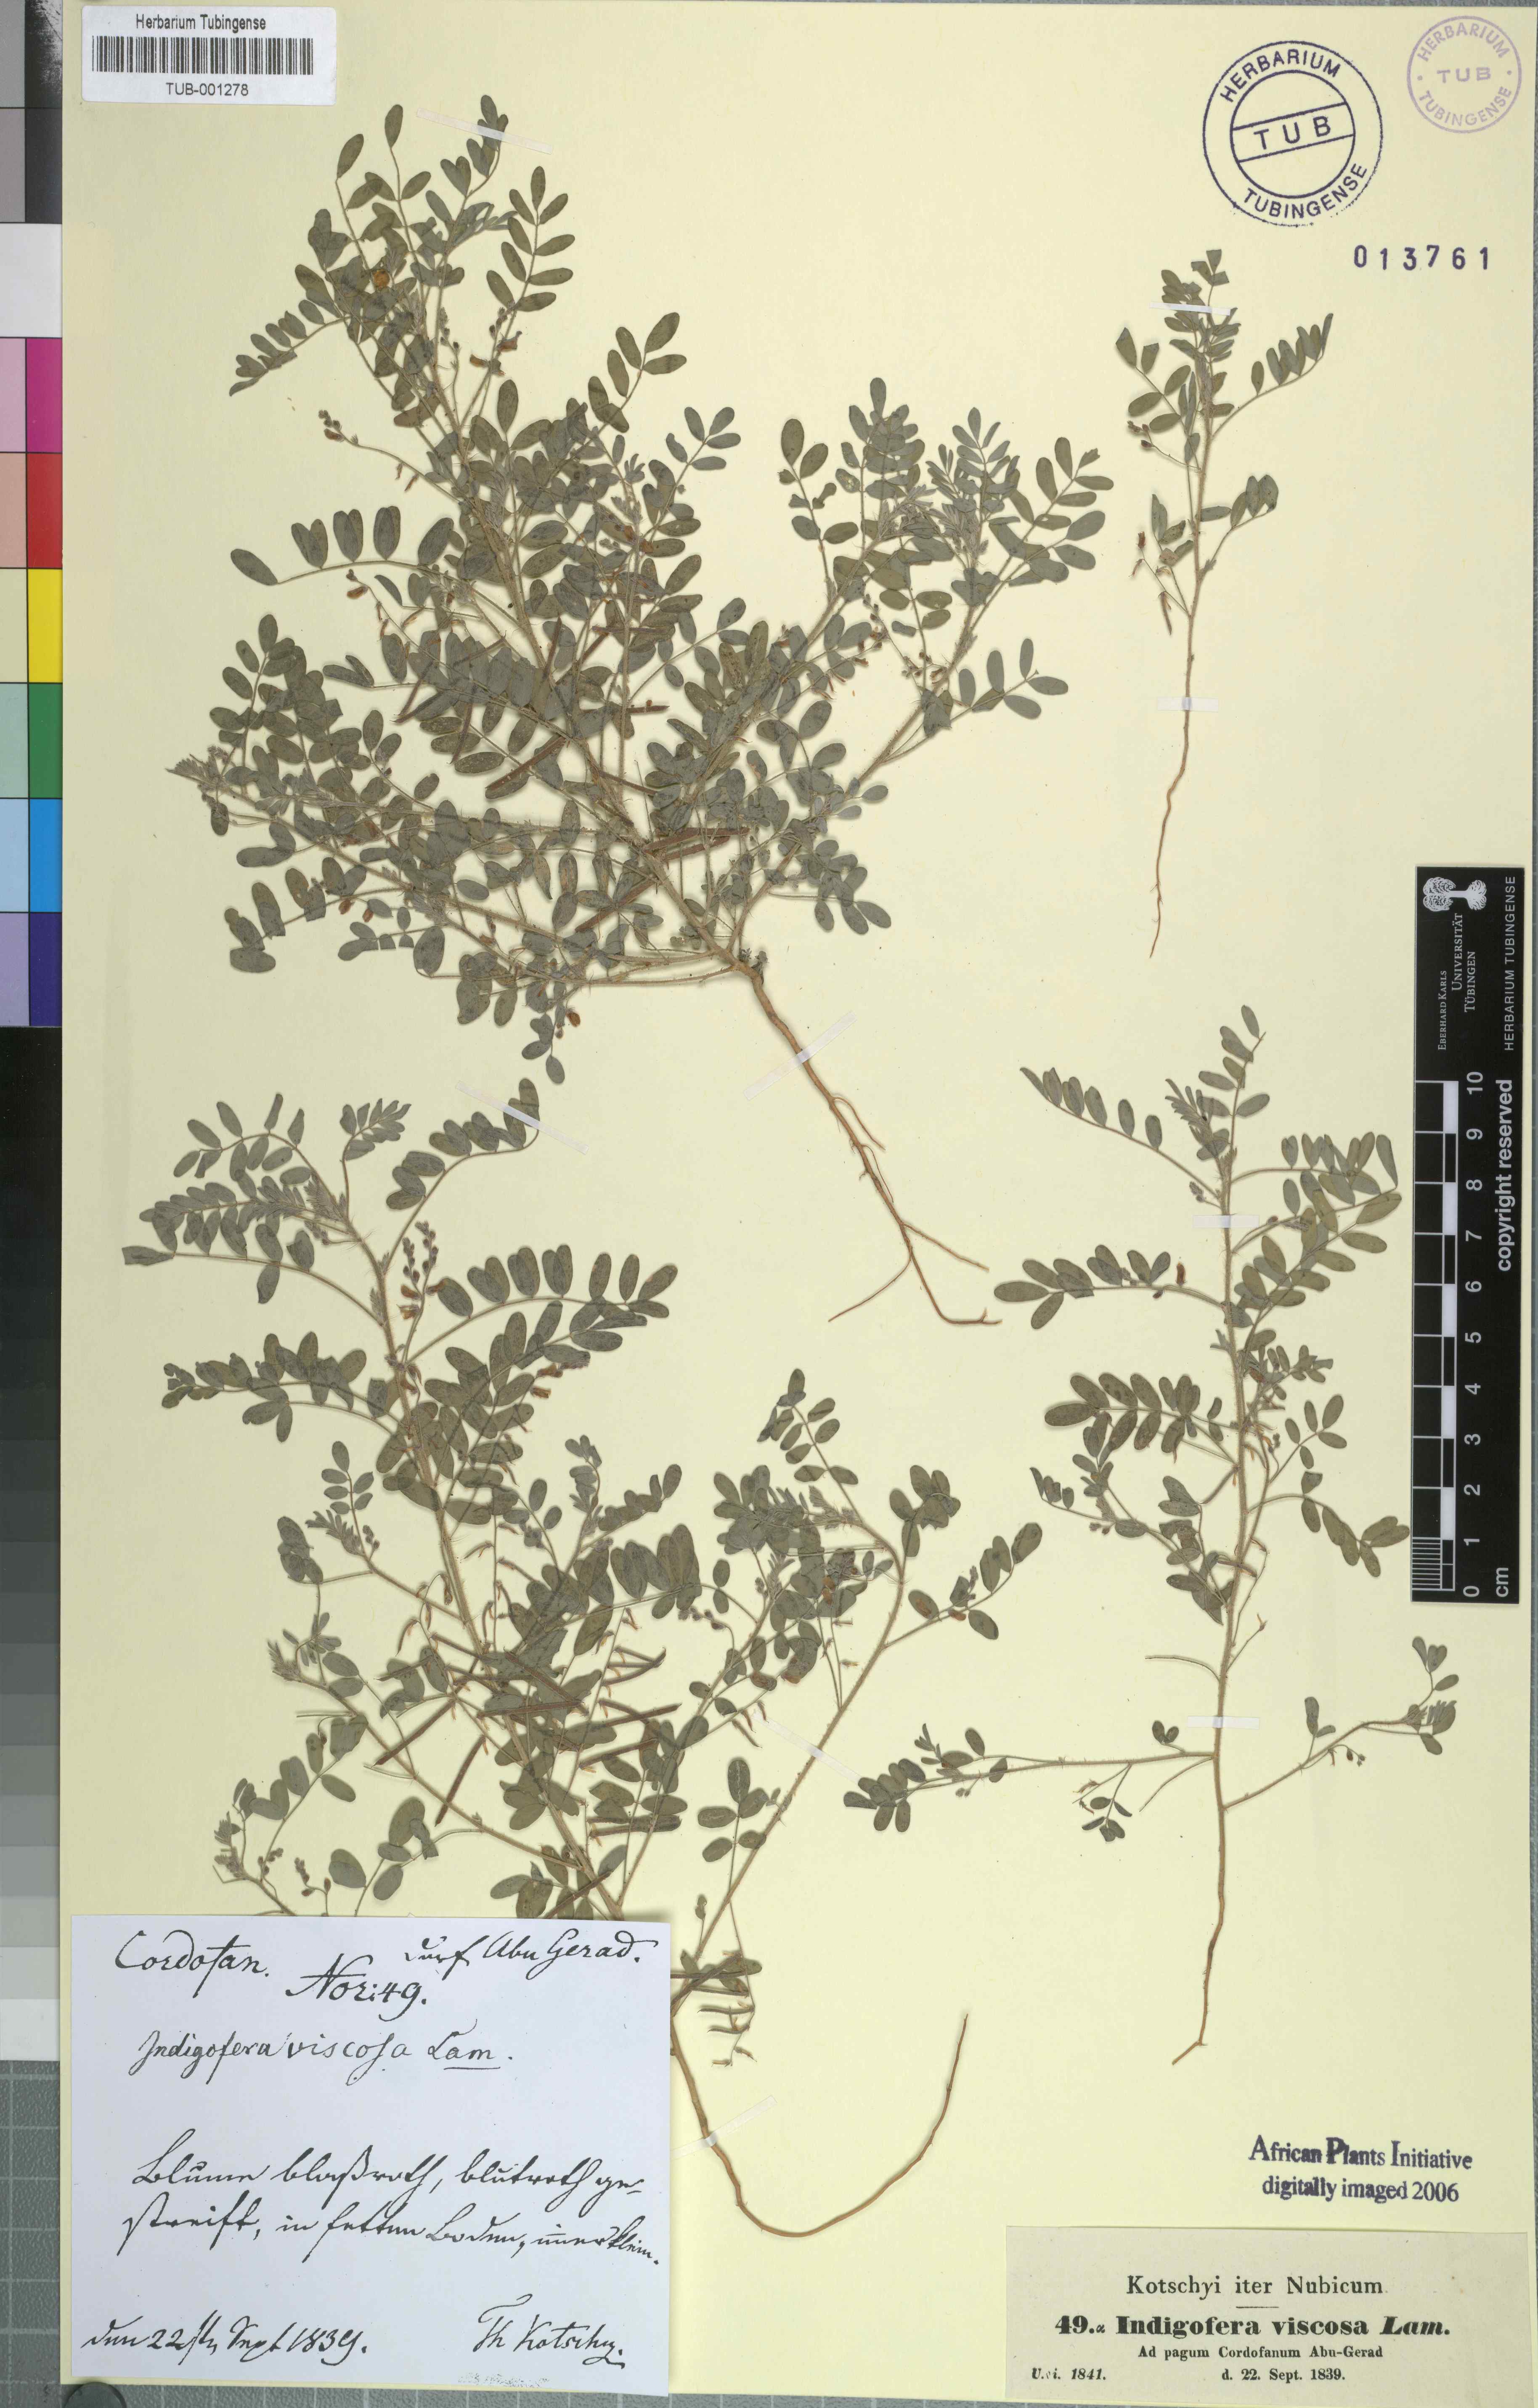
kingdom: Plantae
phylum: Tracheophyta
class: Magnoliopsida
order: Fabales
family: Fabaceae
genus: Indigofera
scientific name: Indigofera colutea
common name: Rusty indigo
